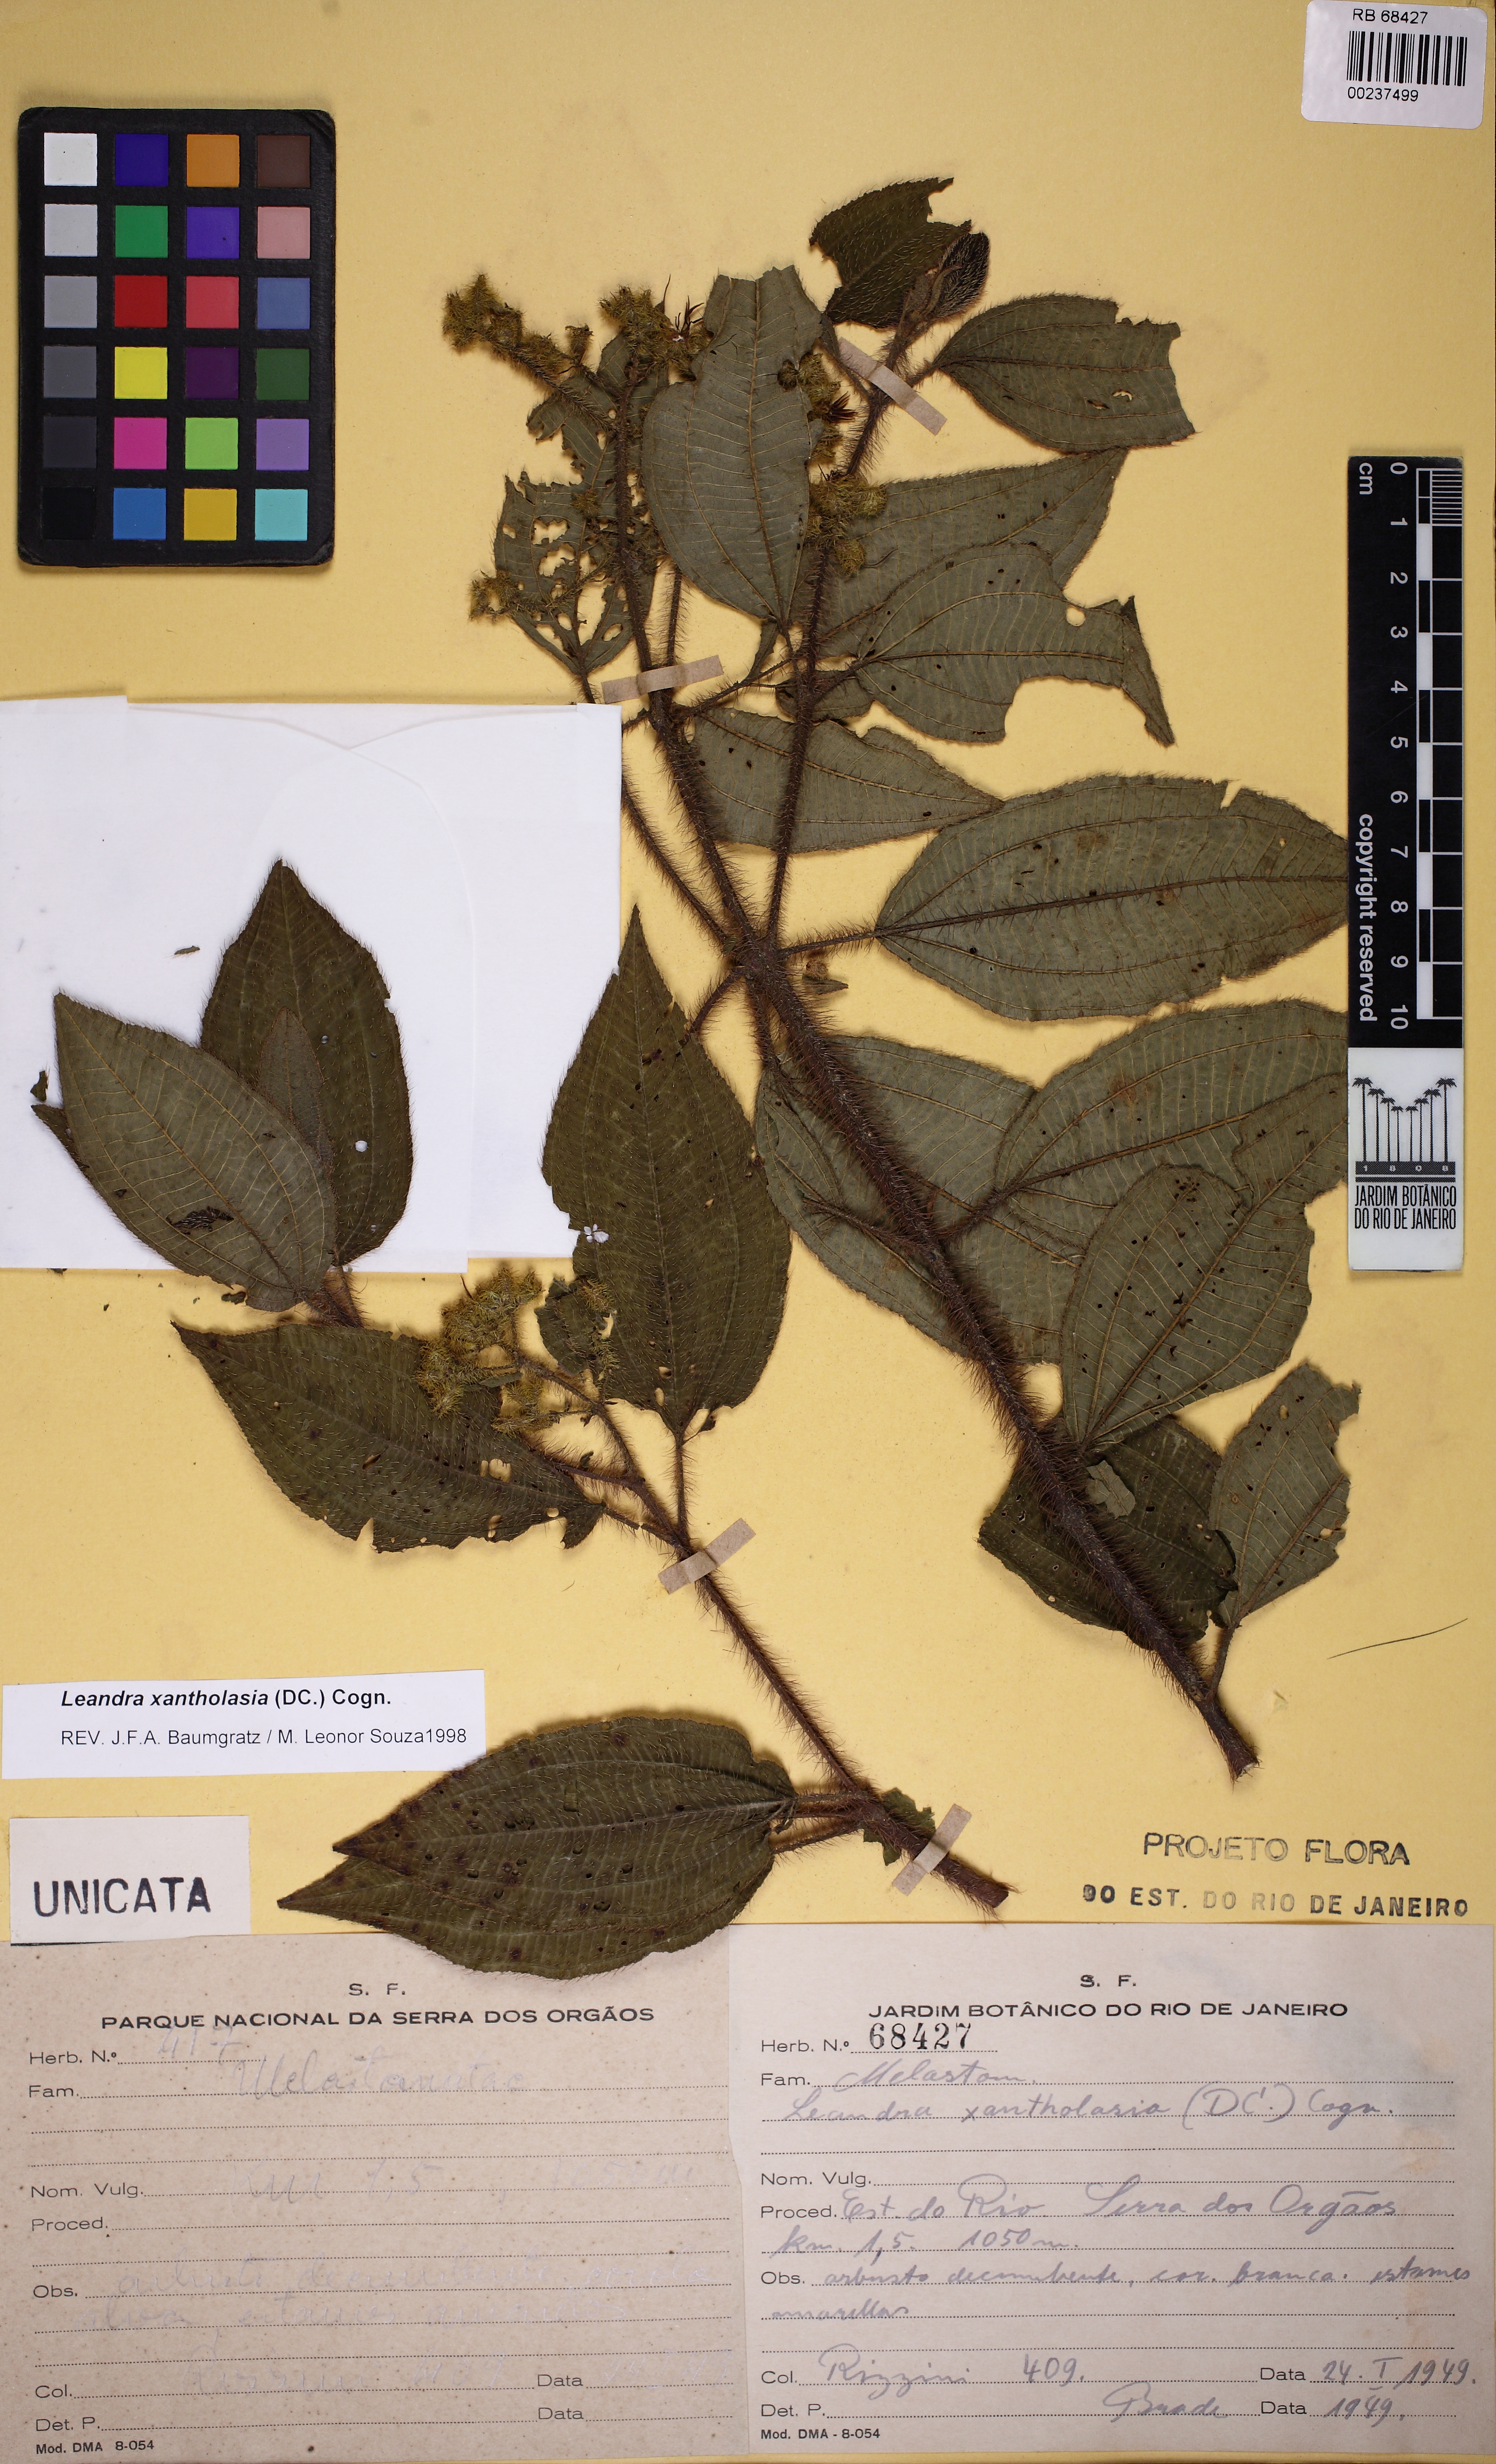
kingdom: Plantae
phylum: Tracheophyta
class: Magnoliopsida
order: Myrtales
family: Melastomataceae
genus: Miconia
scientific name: Miconia xantholasia
